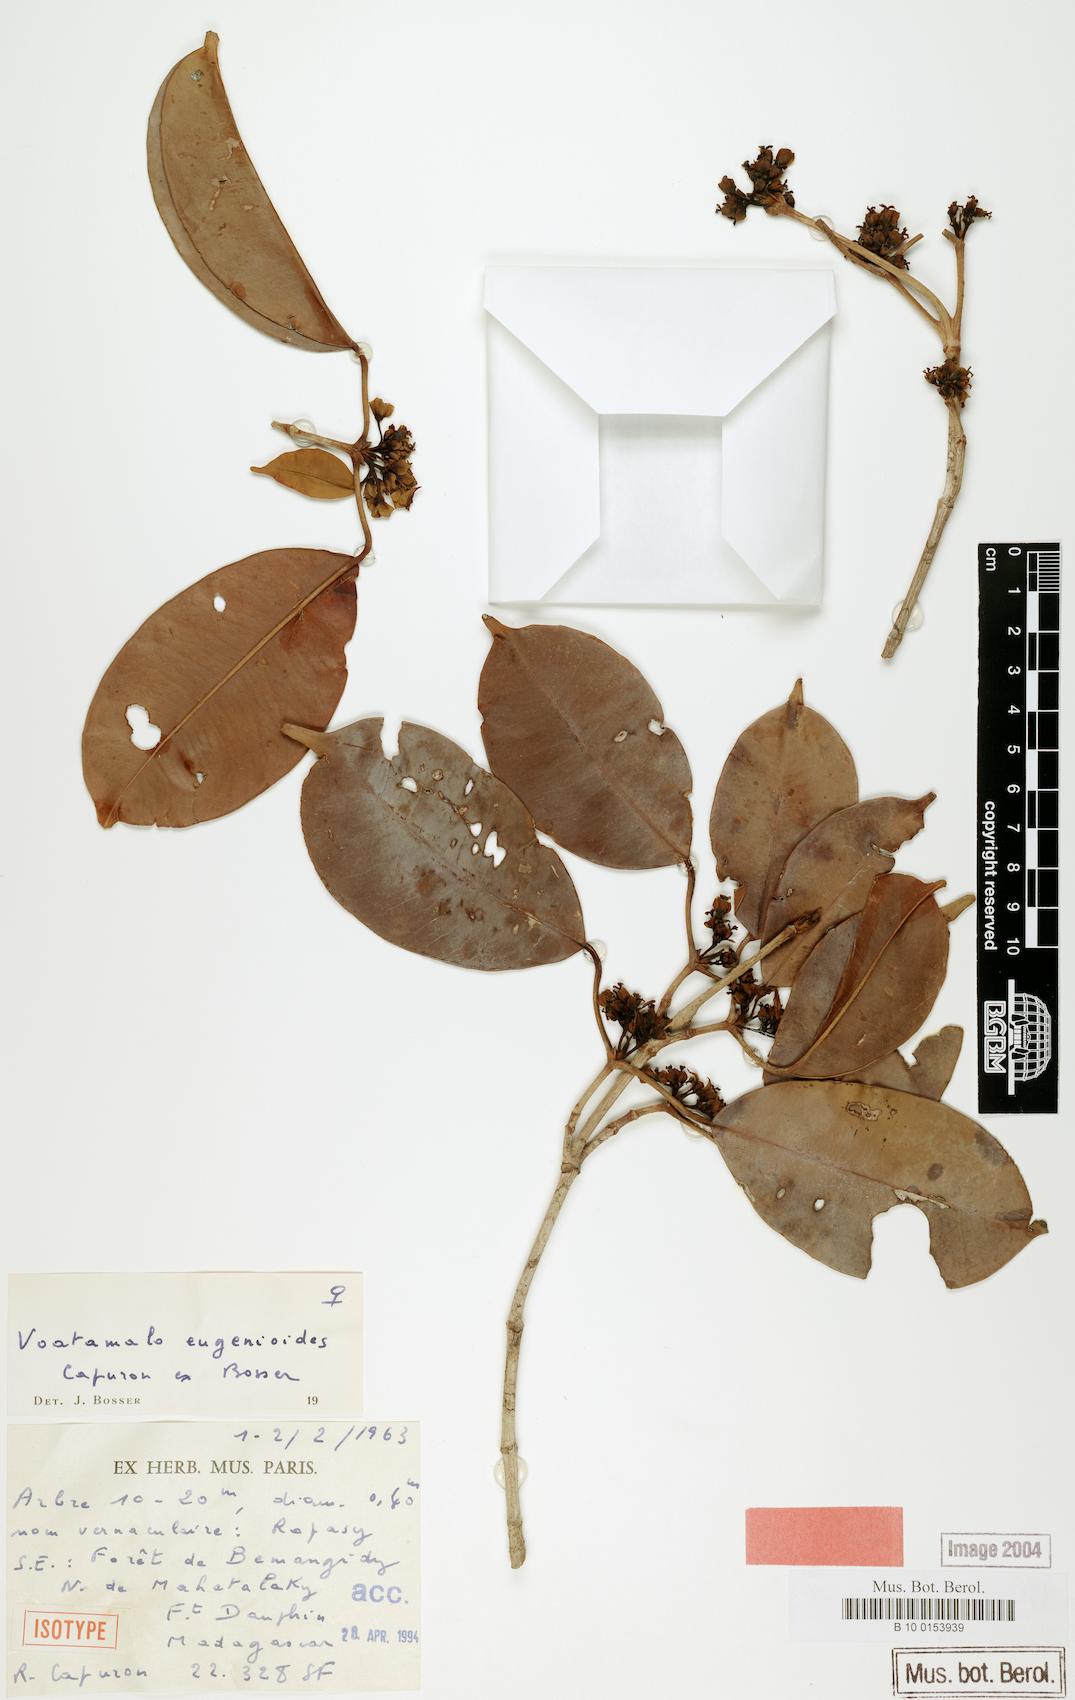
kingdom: Plantae
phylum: Tracheophyta
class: Magnoliopsida
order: Malpighiales
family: Picrodendraceae
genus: Voatamalo
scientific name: Voatamalo eugenioides
